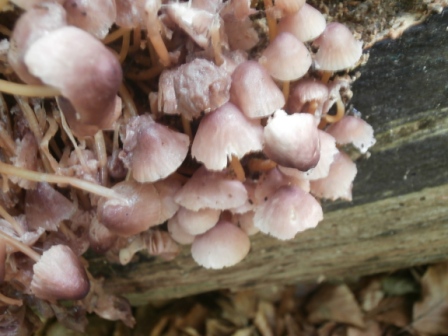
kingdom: Fungi
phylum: Basidiomycota
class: Agaricomycetes
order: Agaricales
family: Mycenaceae
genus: Mycena
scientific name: Mycena renati
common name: smuk huesvamp
